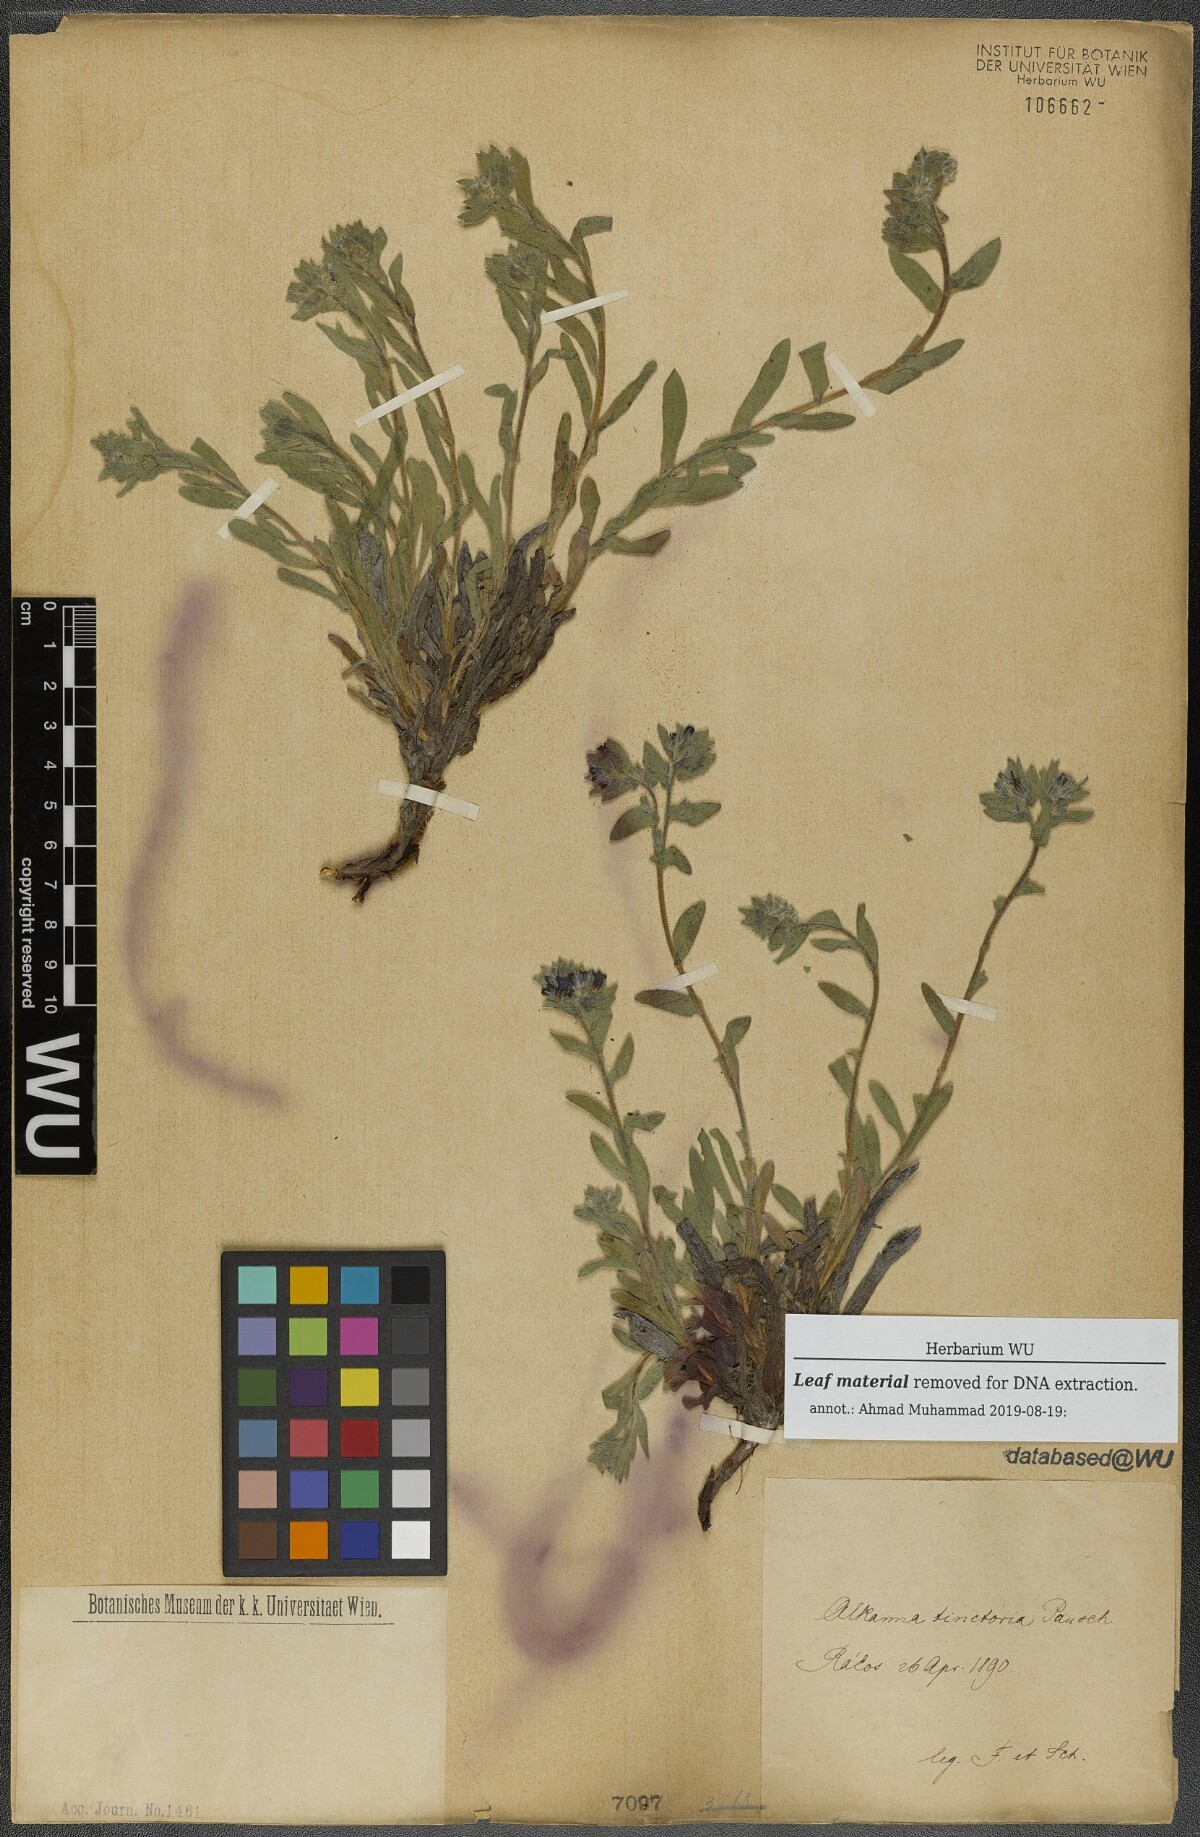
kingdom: Plantae
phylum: Tracheophyta
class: Magnoliopsida
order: Boraginales
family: Boraginaceae
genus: Alkanna
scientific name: Alkanna tinctoria
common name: Dyer's-alkanet
